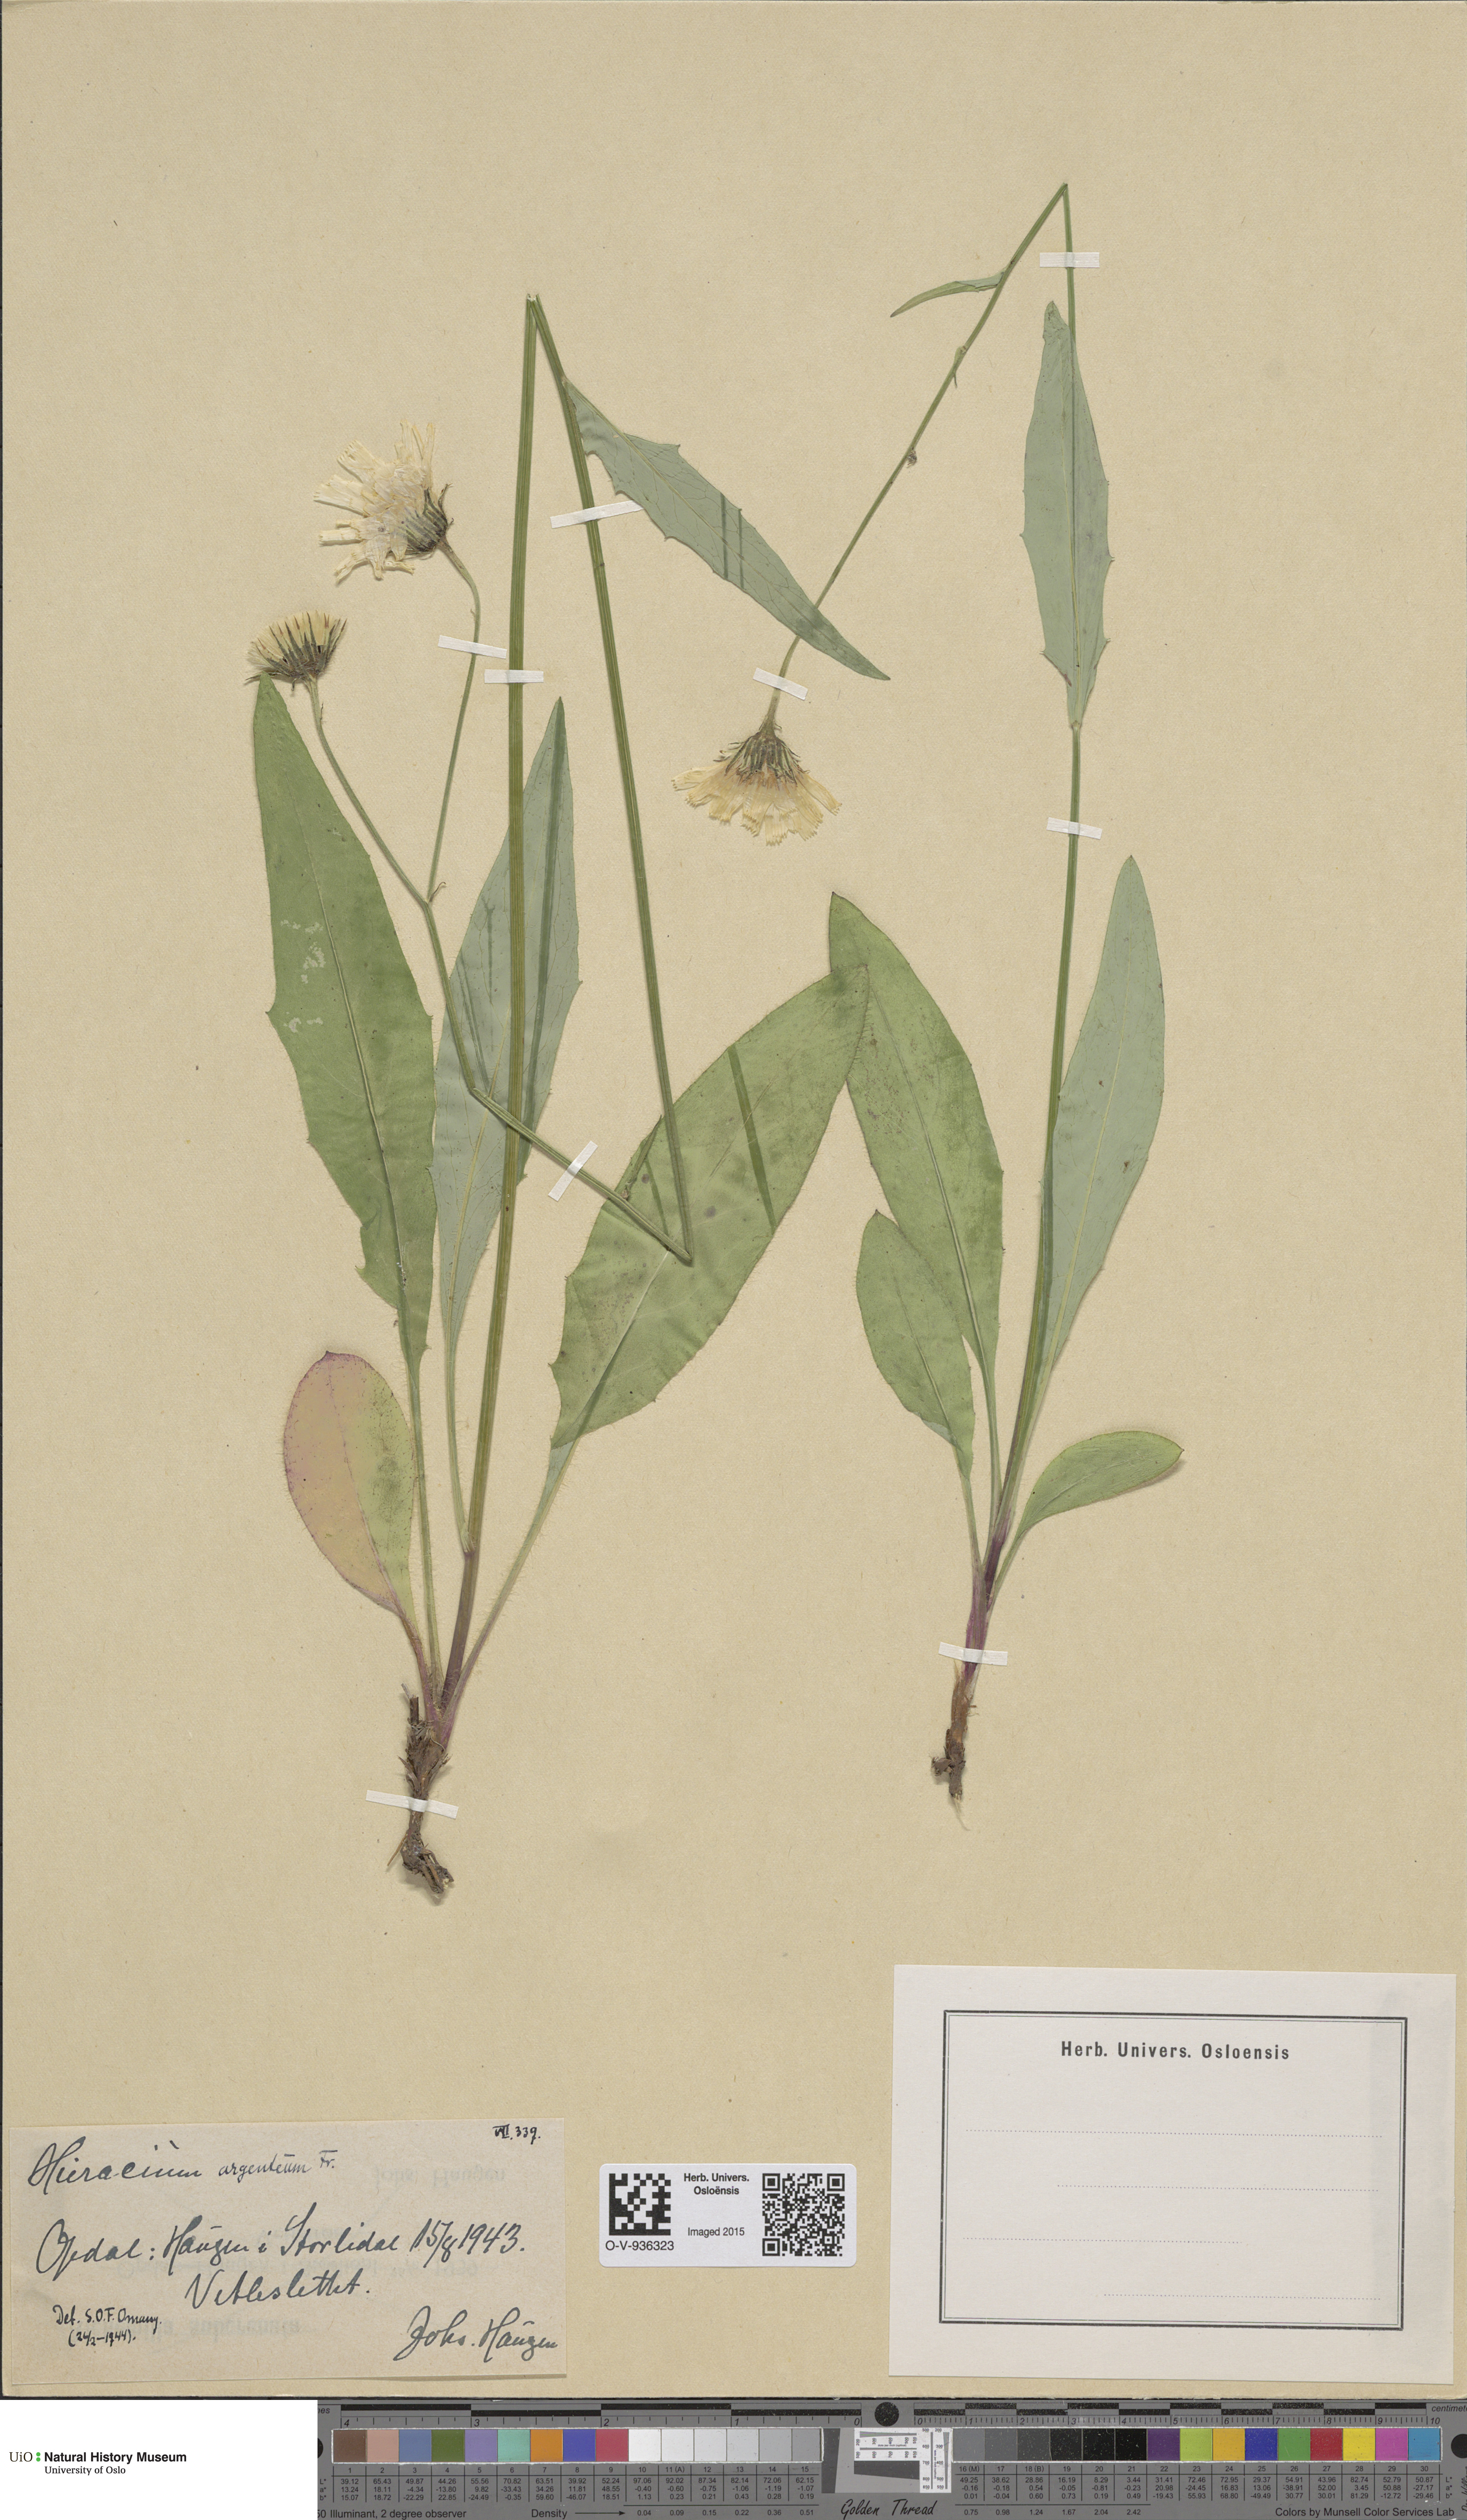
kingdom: Plantae
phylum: Tracheophyta
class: Magnoliopsida
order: Asterales
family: Asteraceae
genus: Hieracium
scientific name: Hieracium argenteum
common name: Silver hawkweed
